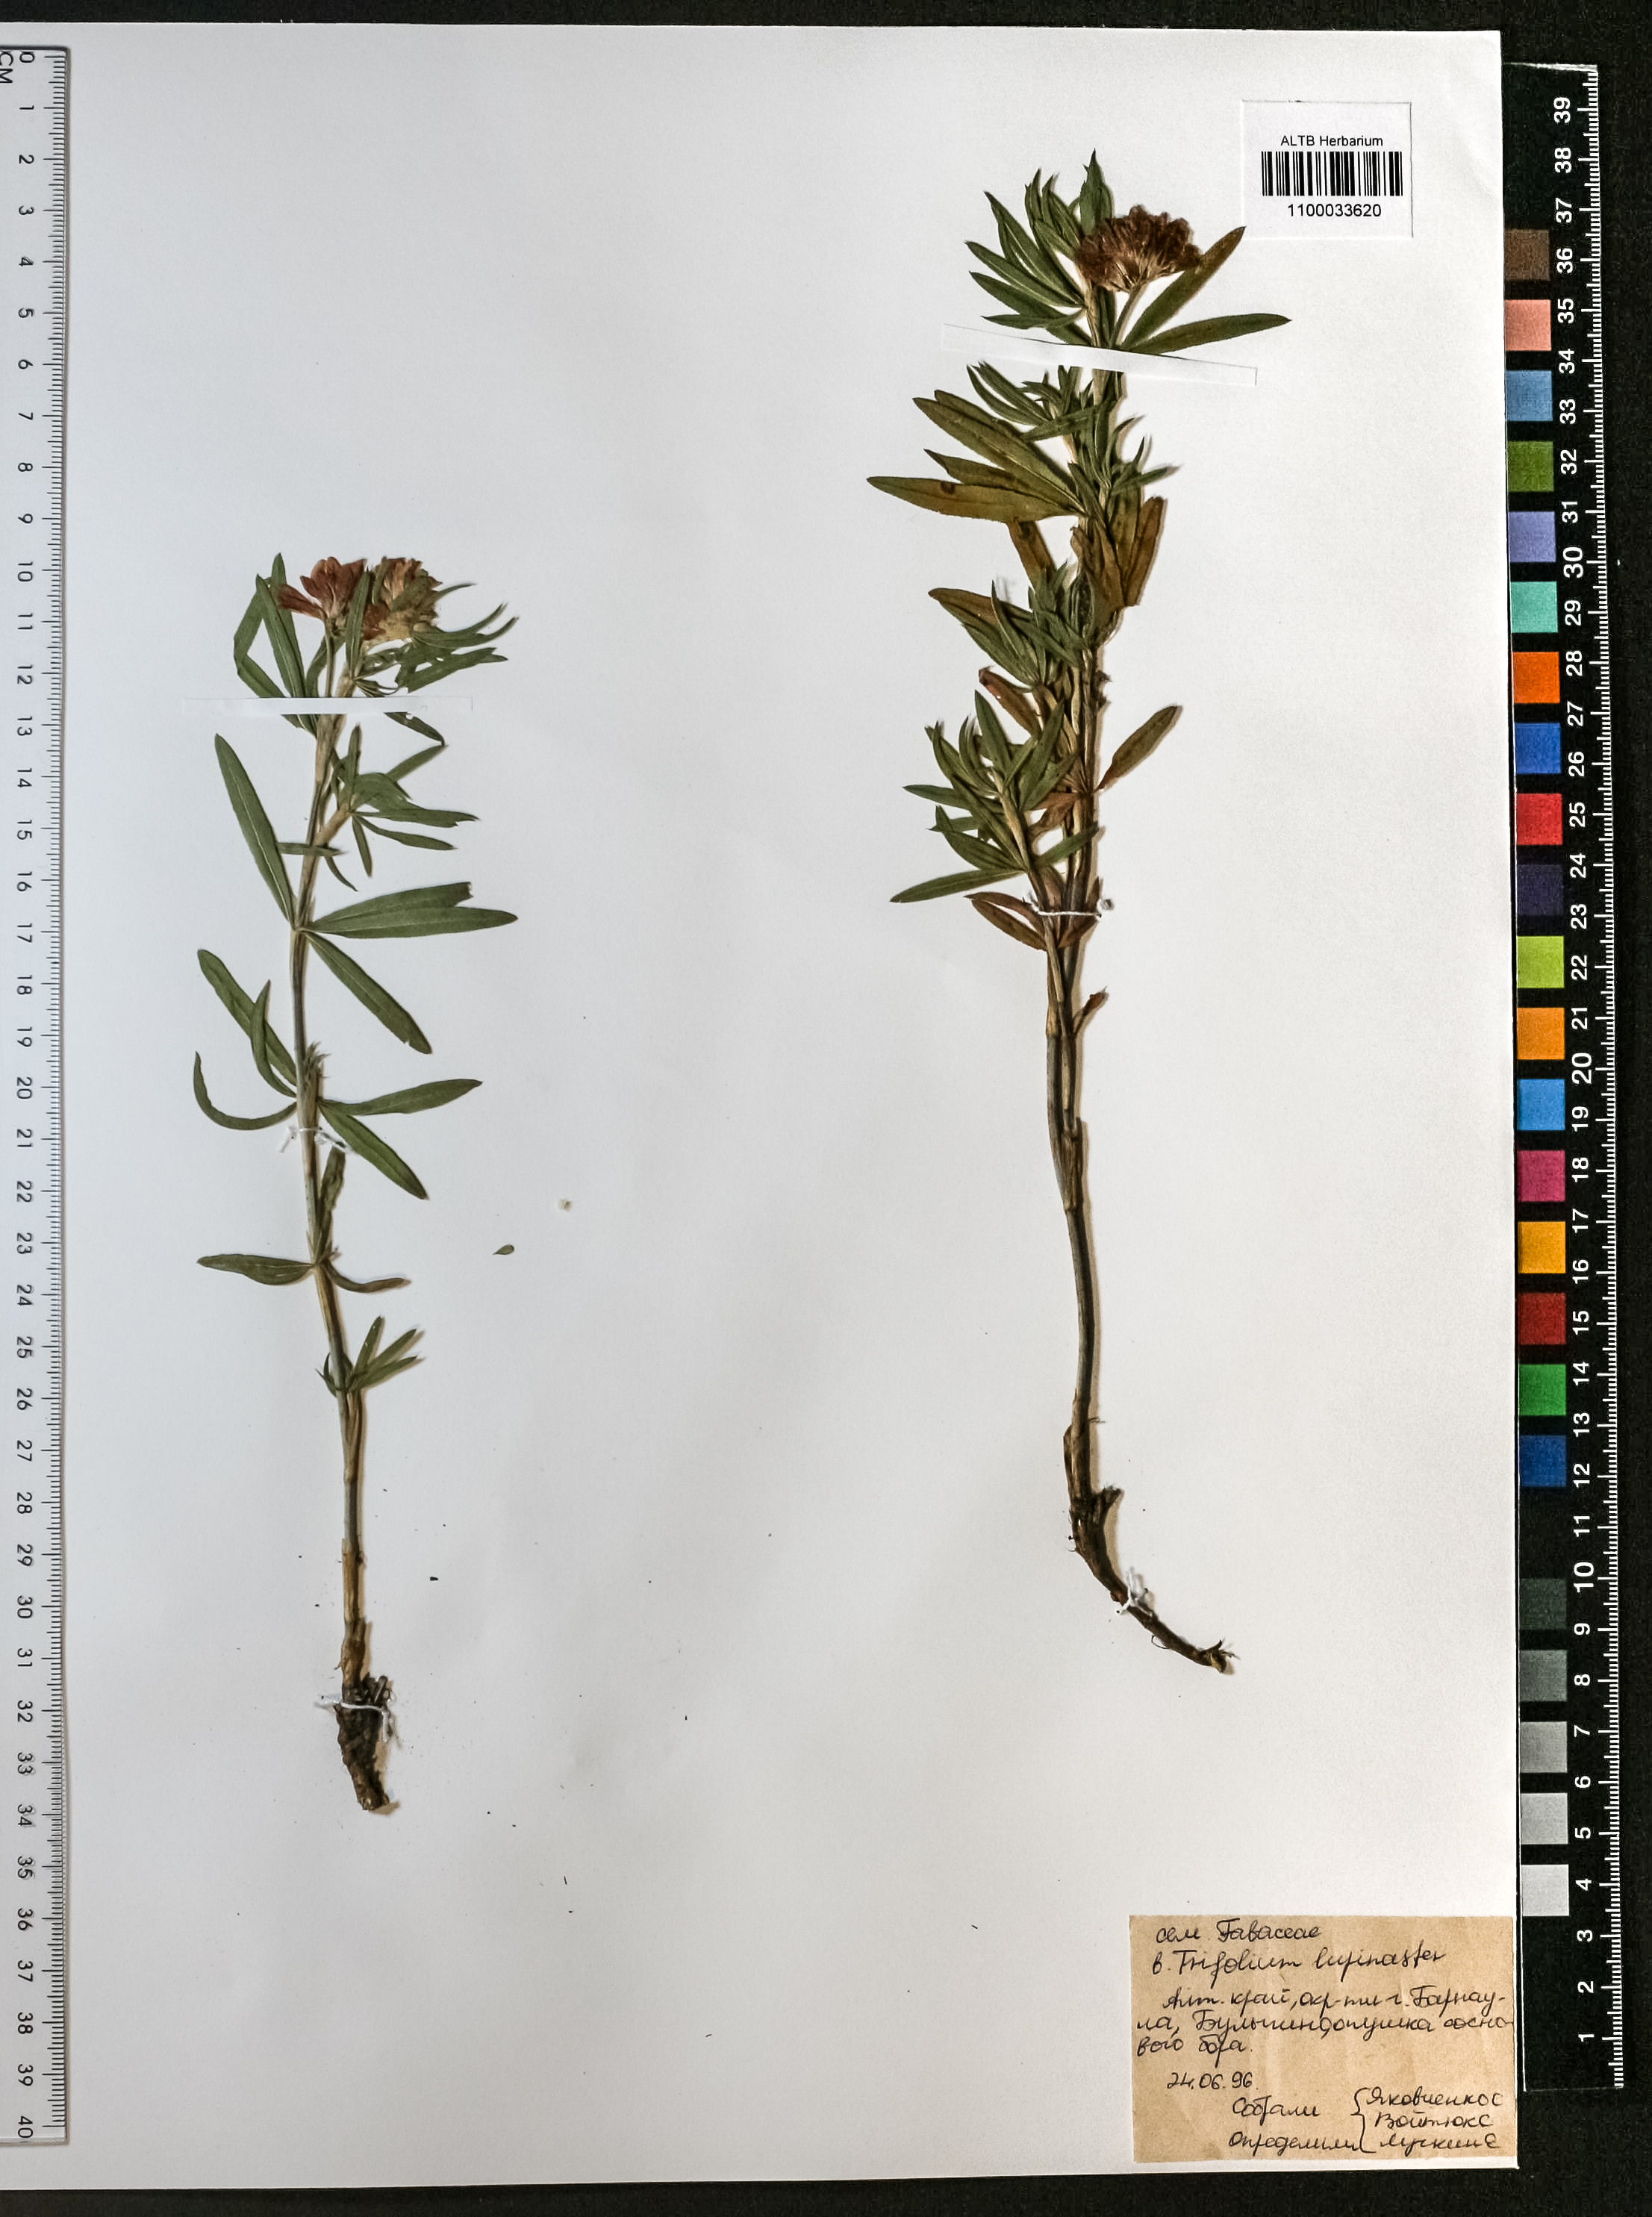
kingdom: Plantae
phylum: Tracheophyta
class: Magnoliopsida
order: Fabales
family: Fabaceae
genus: Trifolium
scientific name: Trifolium lupinaster
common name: Lupine clover
